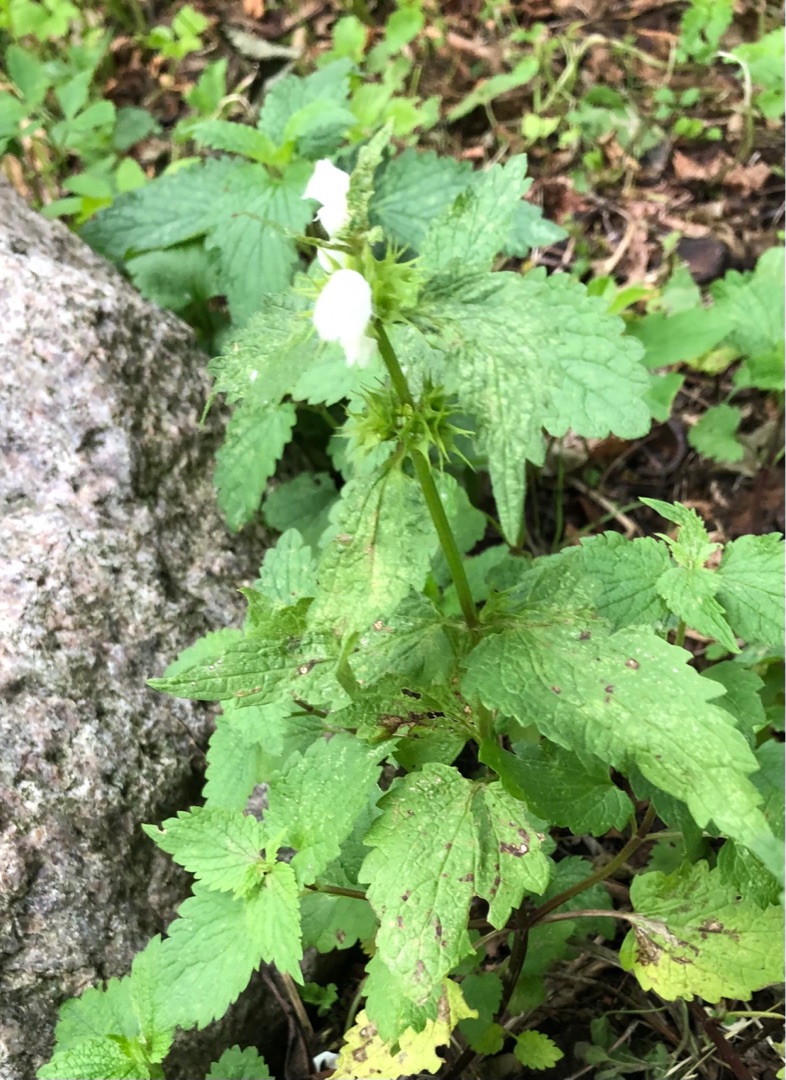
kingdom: Plantae
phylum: Tracheophyta
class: Magnoliopsida
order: Lamiales
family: Lamiaceae
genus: Lamium
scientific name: Lamium album
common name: Døvnælde
